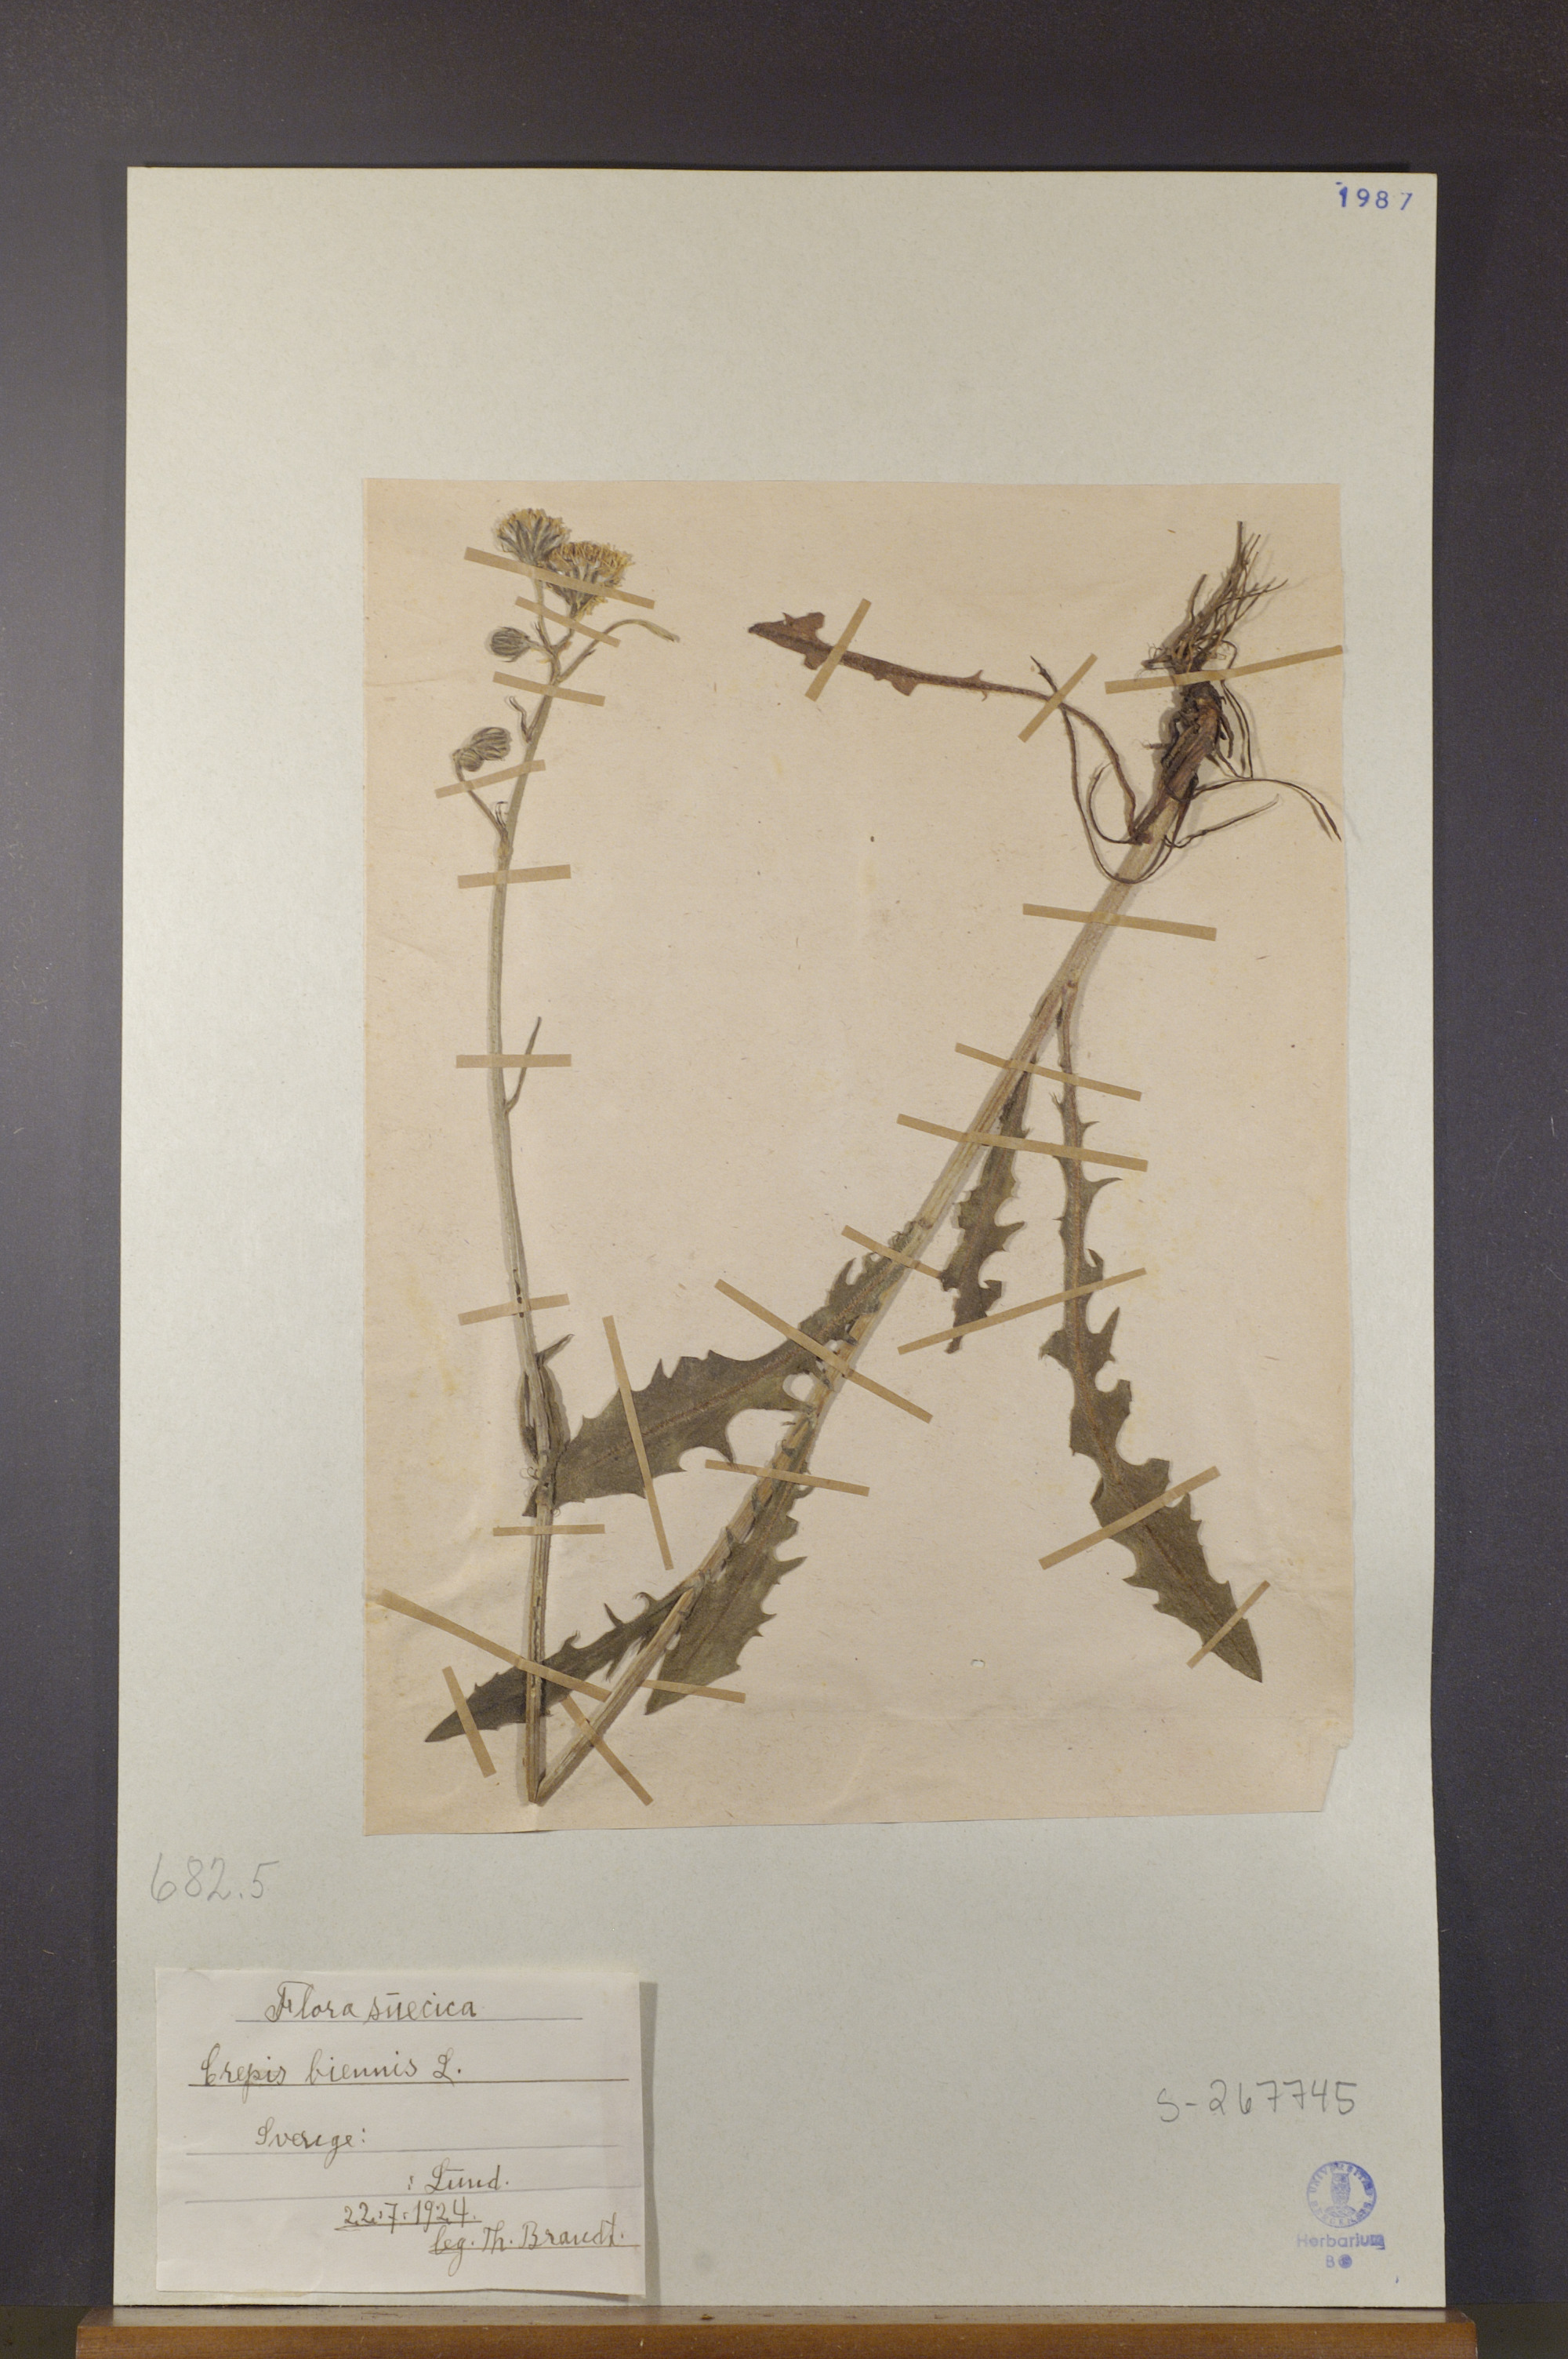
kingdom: Plantae
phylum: Tracheophyta
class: Magnoliopsida
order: Asterales
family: Asteraceae
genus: Crepis
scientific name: Crepis biennis
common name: Rough hawk's-beard
